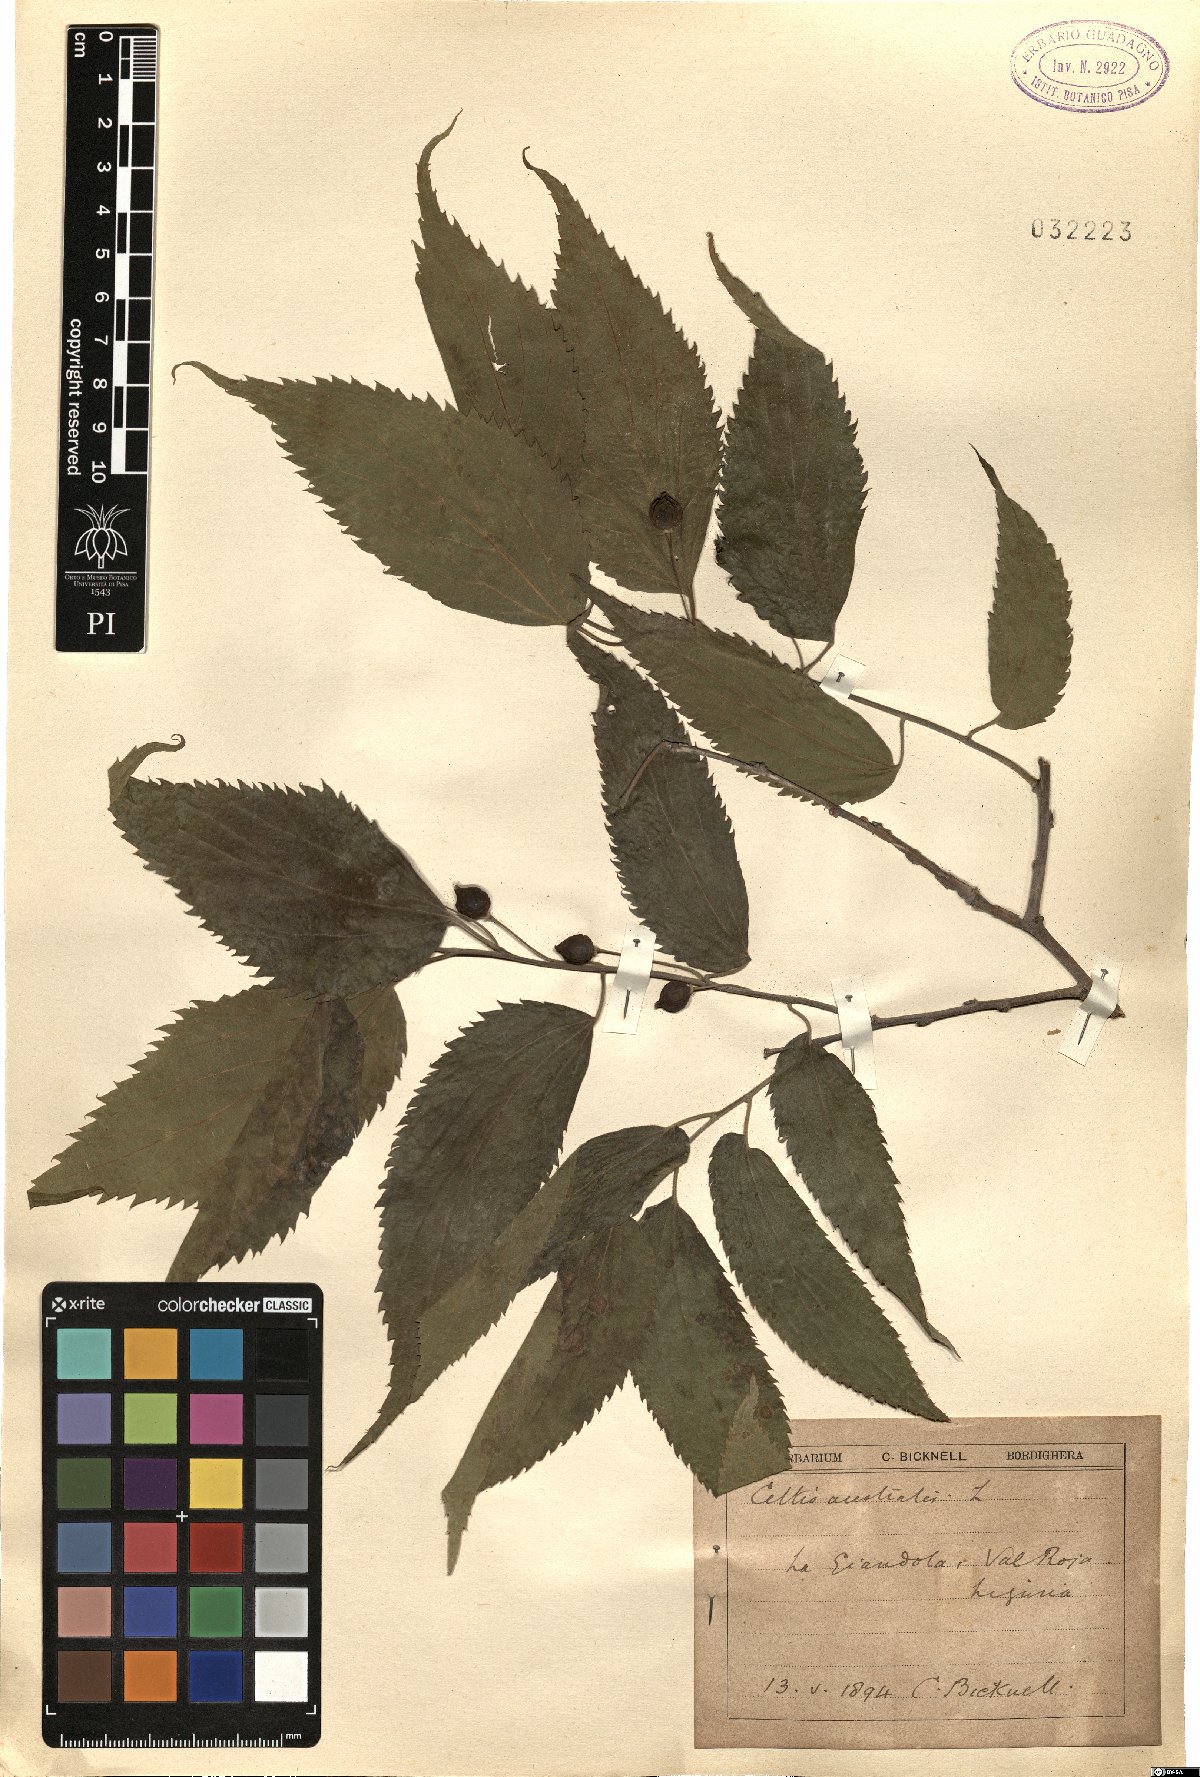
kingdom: Plantae
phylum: Tracheophyta
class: Magnoliopsida
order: Rosales
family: Cannabaceae
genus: Celtis
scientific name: Celtis australis
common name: European hackberry
